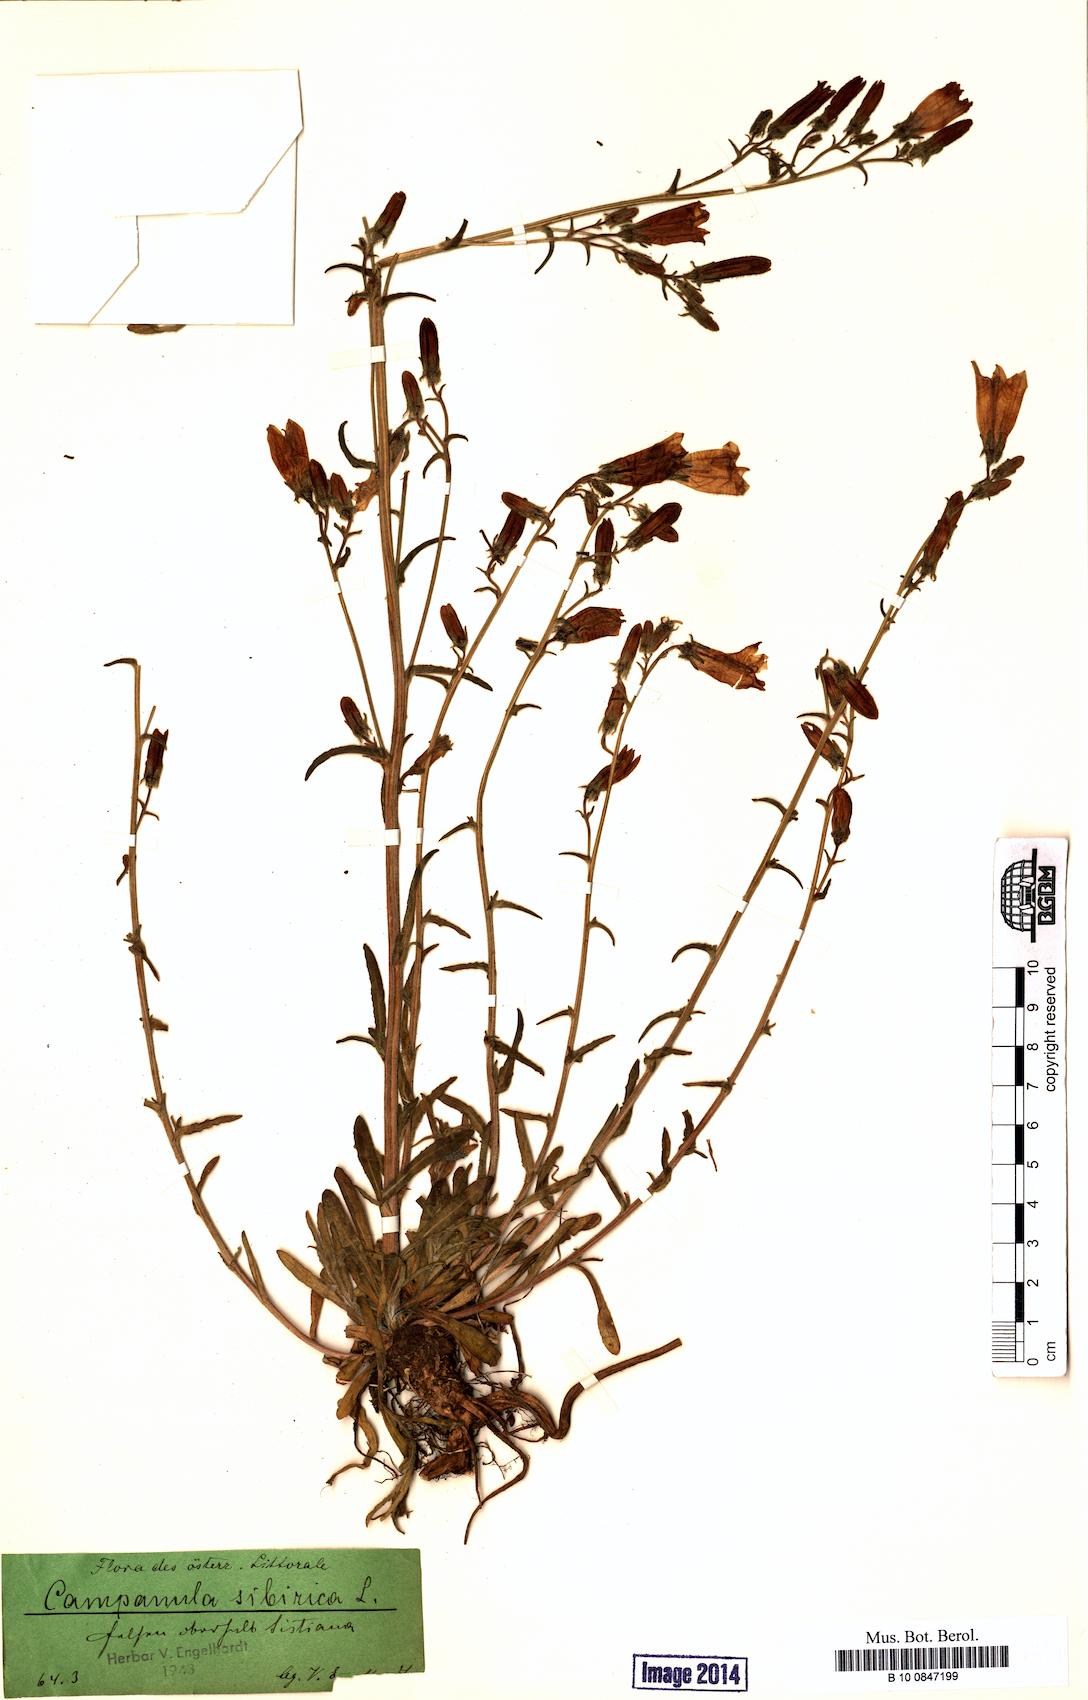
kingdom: Plantae
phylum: Tracheophyta
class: Magnoliopsida
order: Asterales
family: Campanulaceae
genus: Campanula
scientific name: Campanula sibirica
